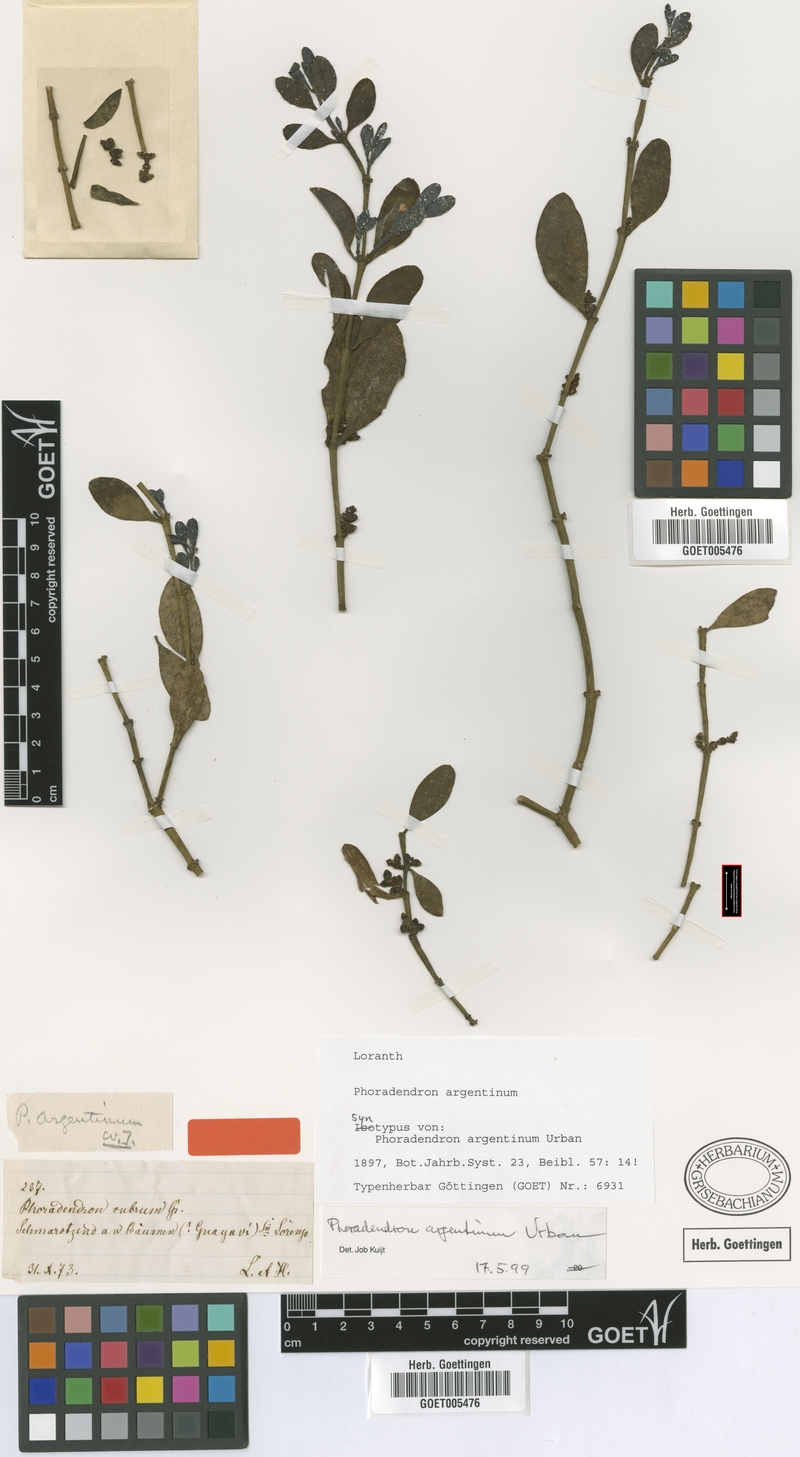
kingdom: Plantae
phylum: Tracheophyta
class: Magnoliopsida
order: Santalales
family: Viscaceae
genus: Phoradendron
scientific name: Phoradendron argentinum
